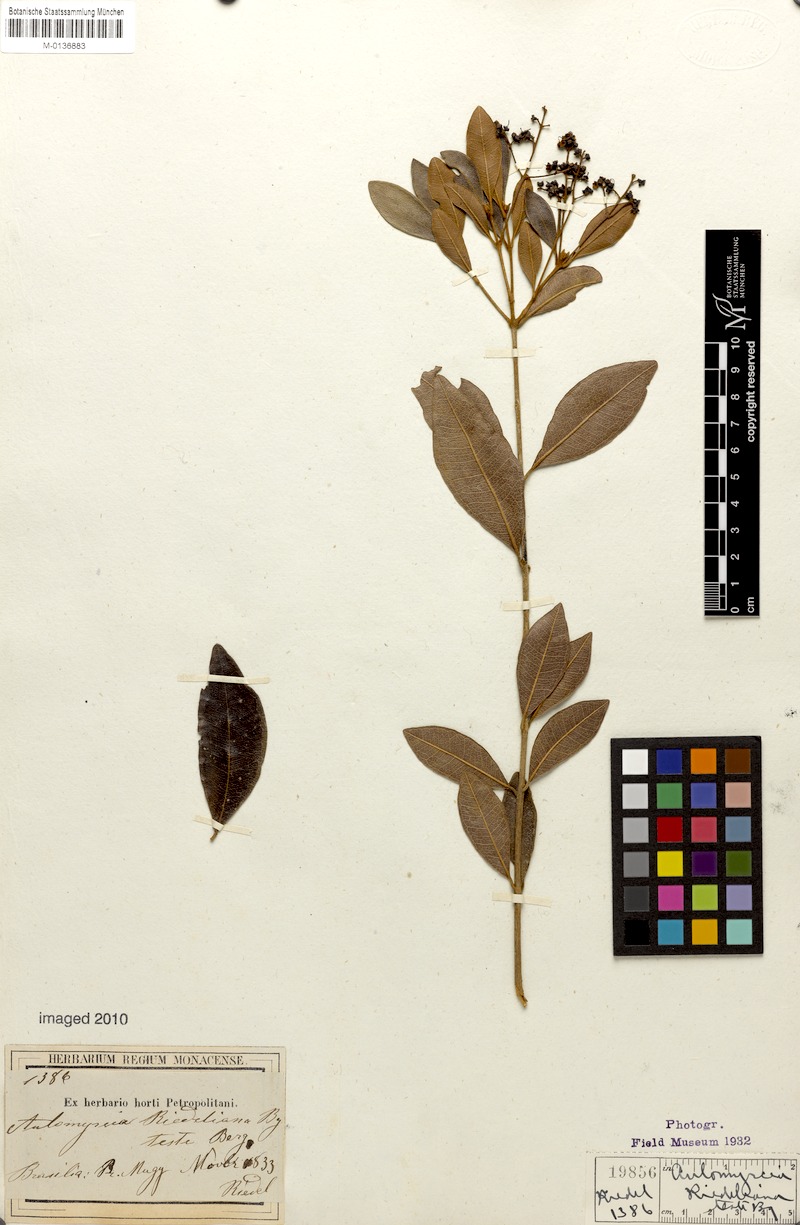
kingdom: Plantae
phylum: Tracheophyta
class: Magnoliopsida
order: Myrtales
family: Myrtaceae
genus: Myrcia
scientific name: Myrcia venulosa
